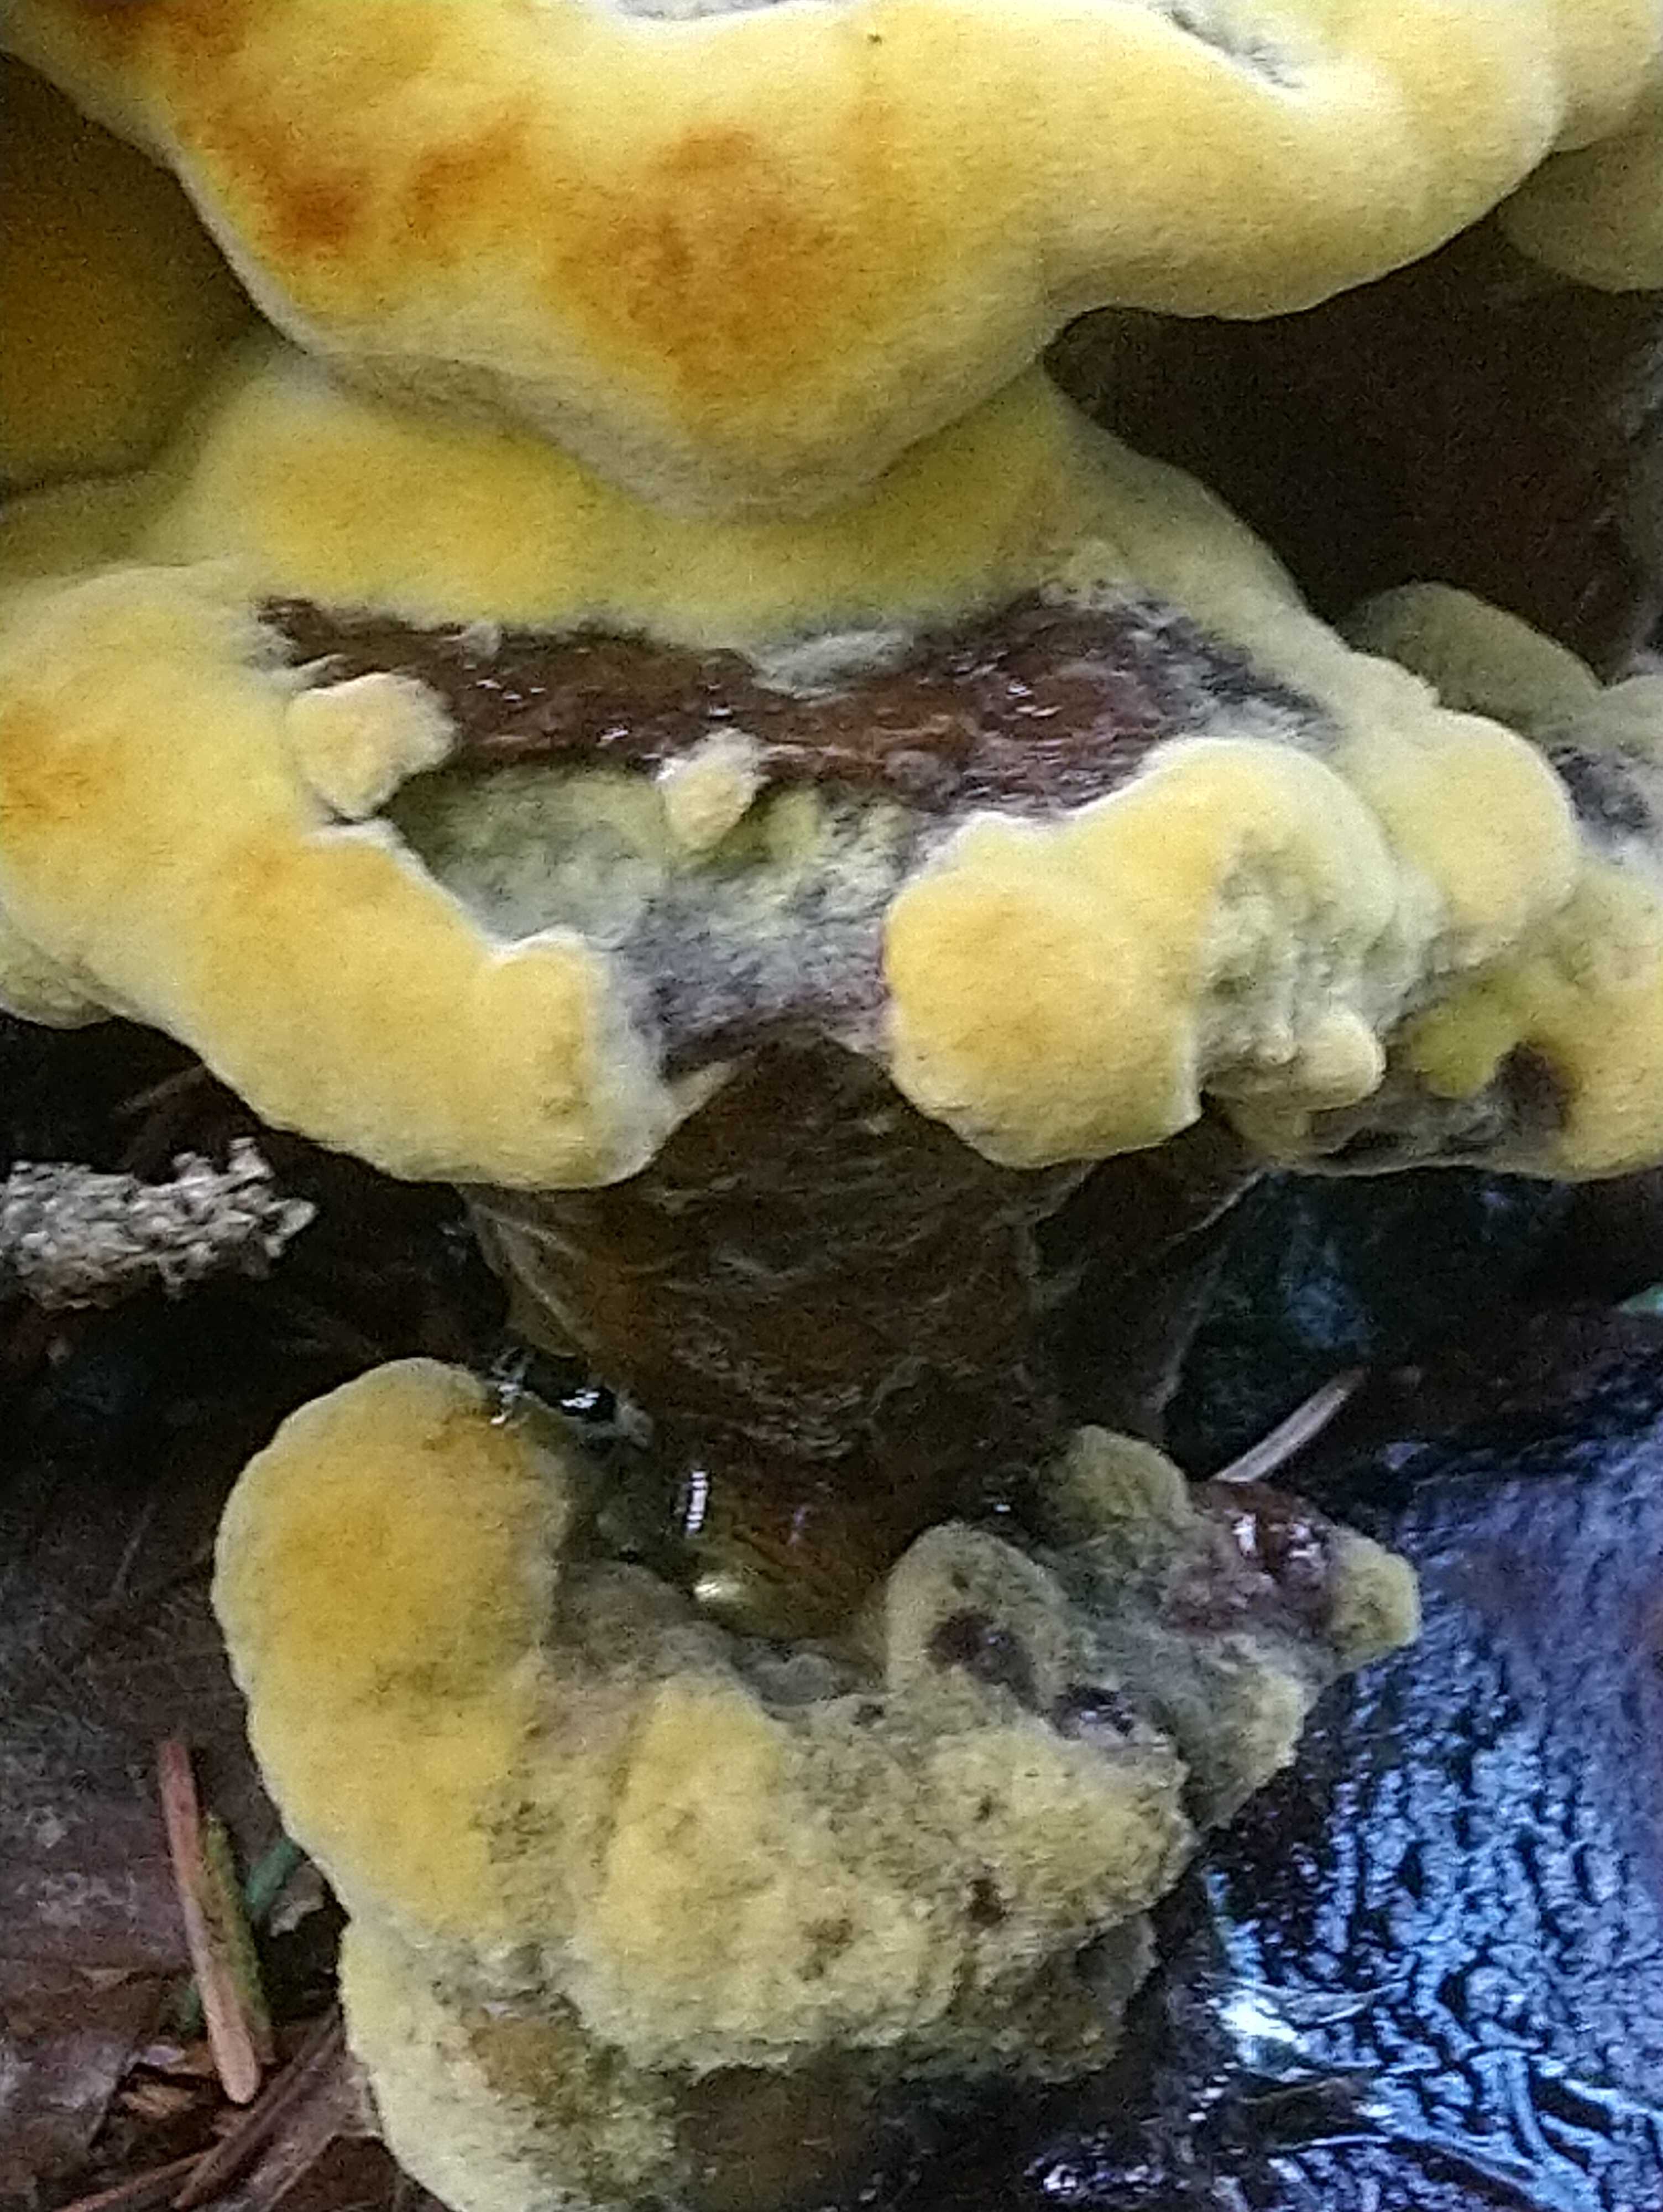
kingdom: Fungi
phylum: Basidiomycota
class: Agaricomycetes
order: Polyporales
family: Laetiporaceae
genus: Phaeolus
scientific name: Phaeolus schweinitzii
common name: brunporesvamp
